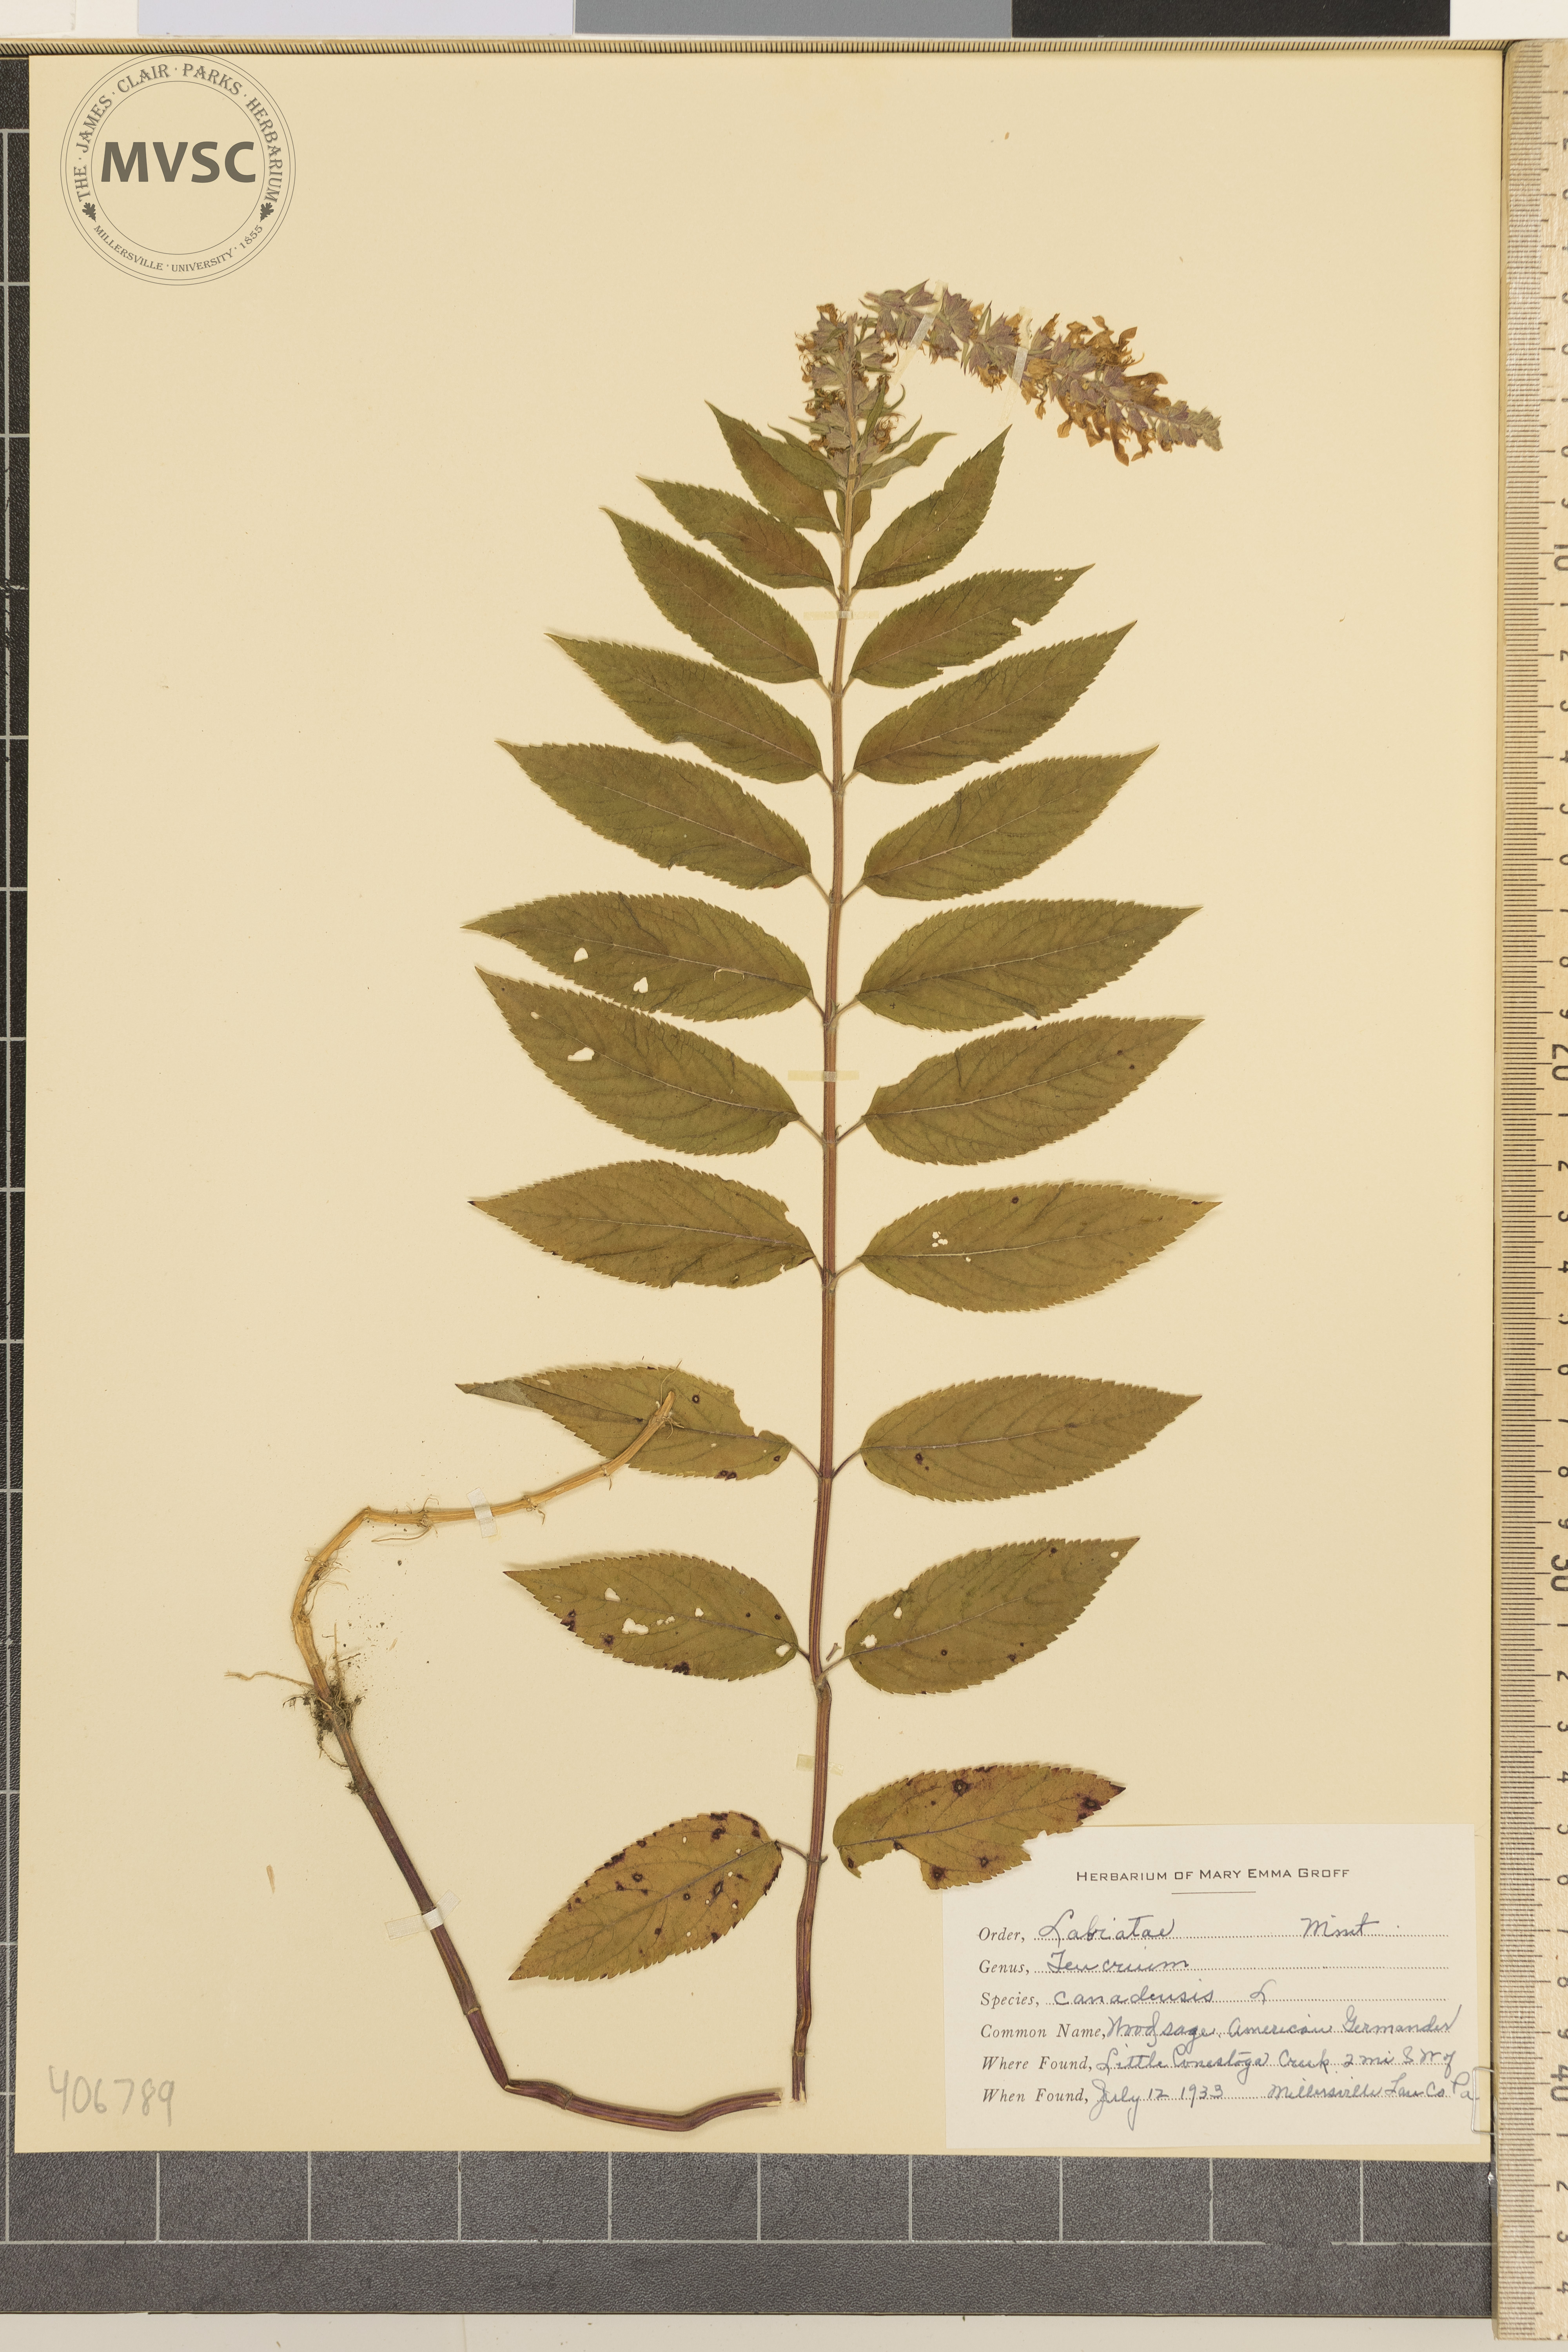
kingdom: Plantae
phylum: Tracheophyta
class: Magnoliopsida
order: Lamiales
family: Lamiaceae
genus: Teucrium
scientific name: Teucrium canadense
